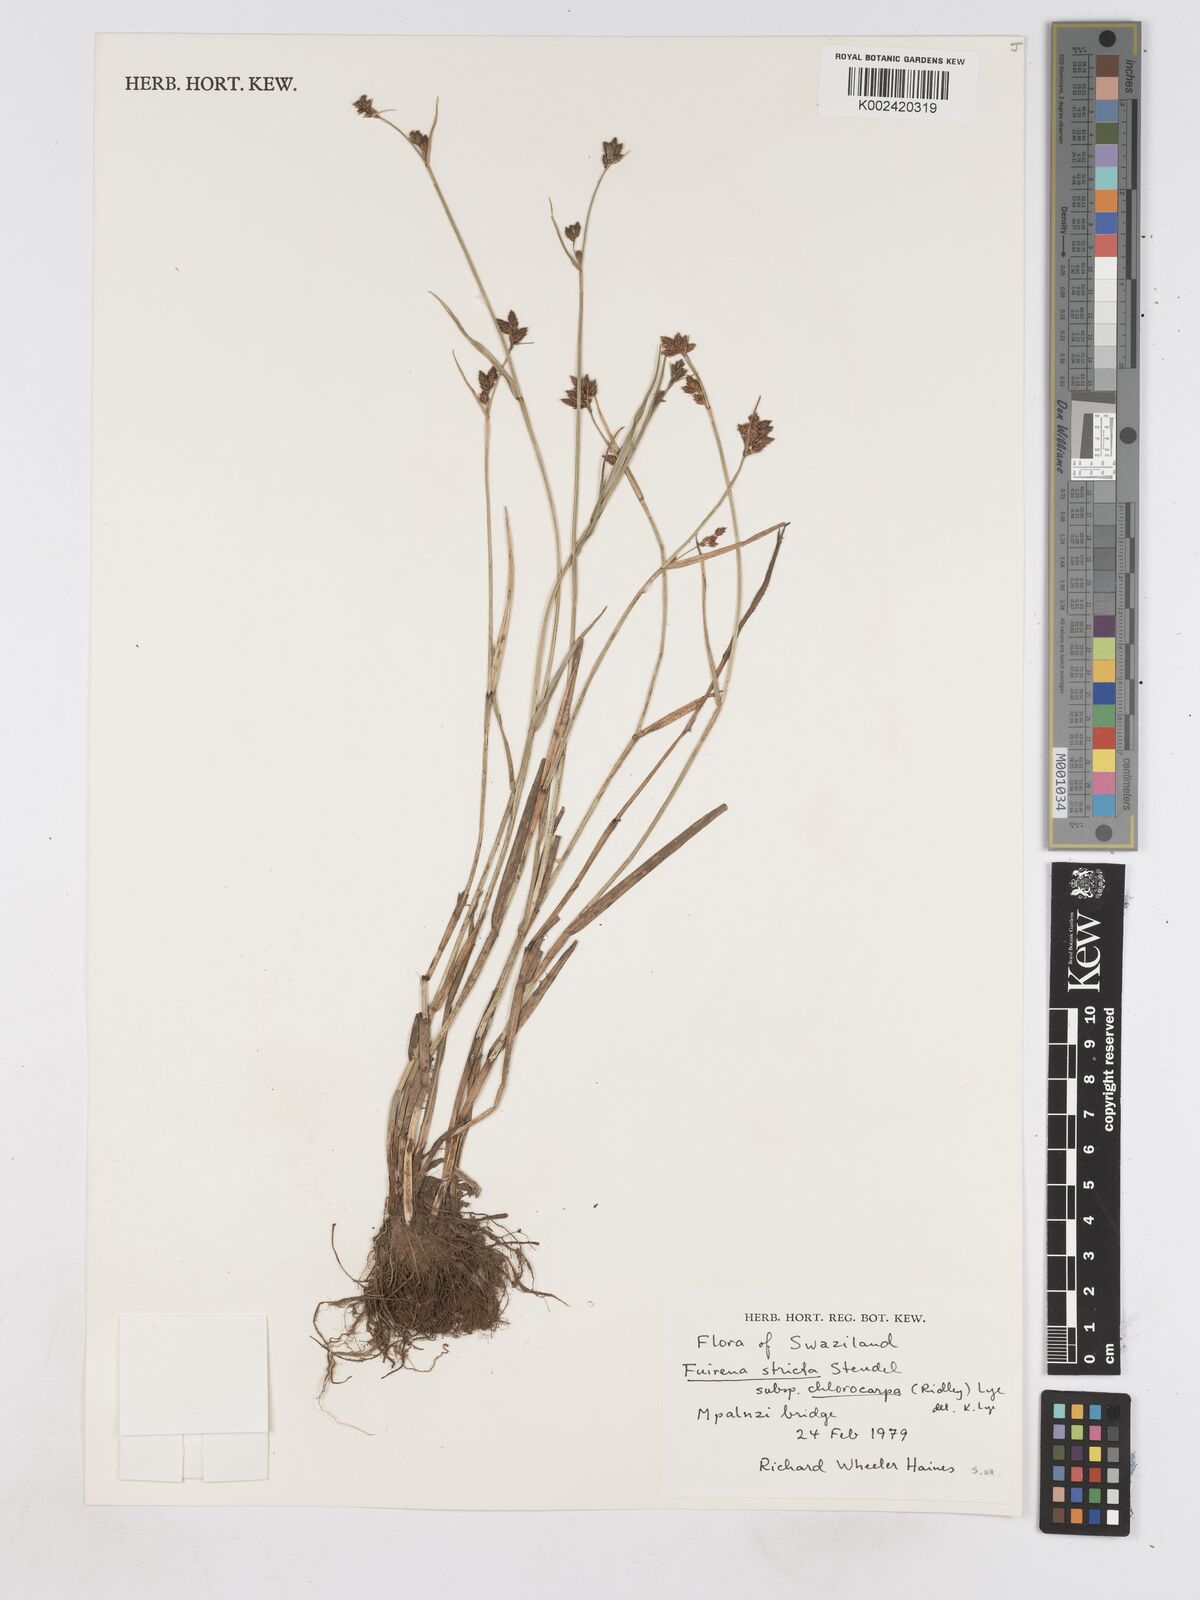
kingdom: Plantae
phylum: Tracheophyta
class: Liliopsida
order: Poales
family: Cyperaceae
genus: Fuirena
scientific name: Fuirena stricta
